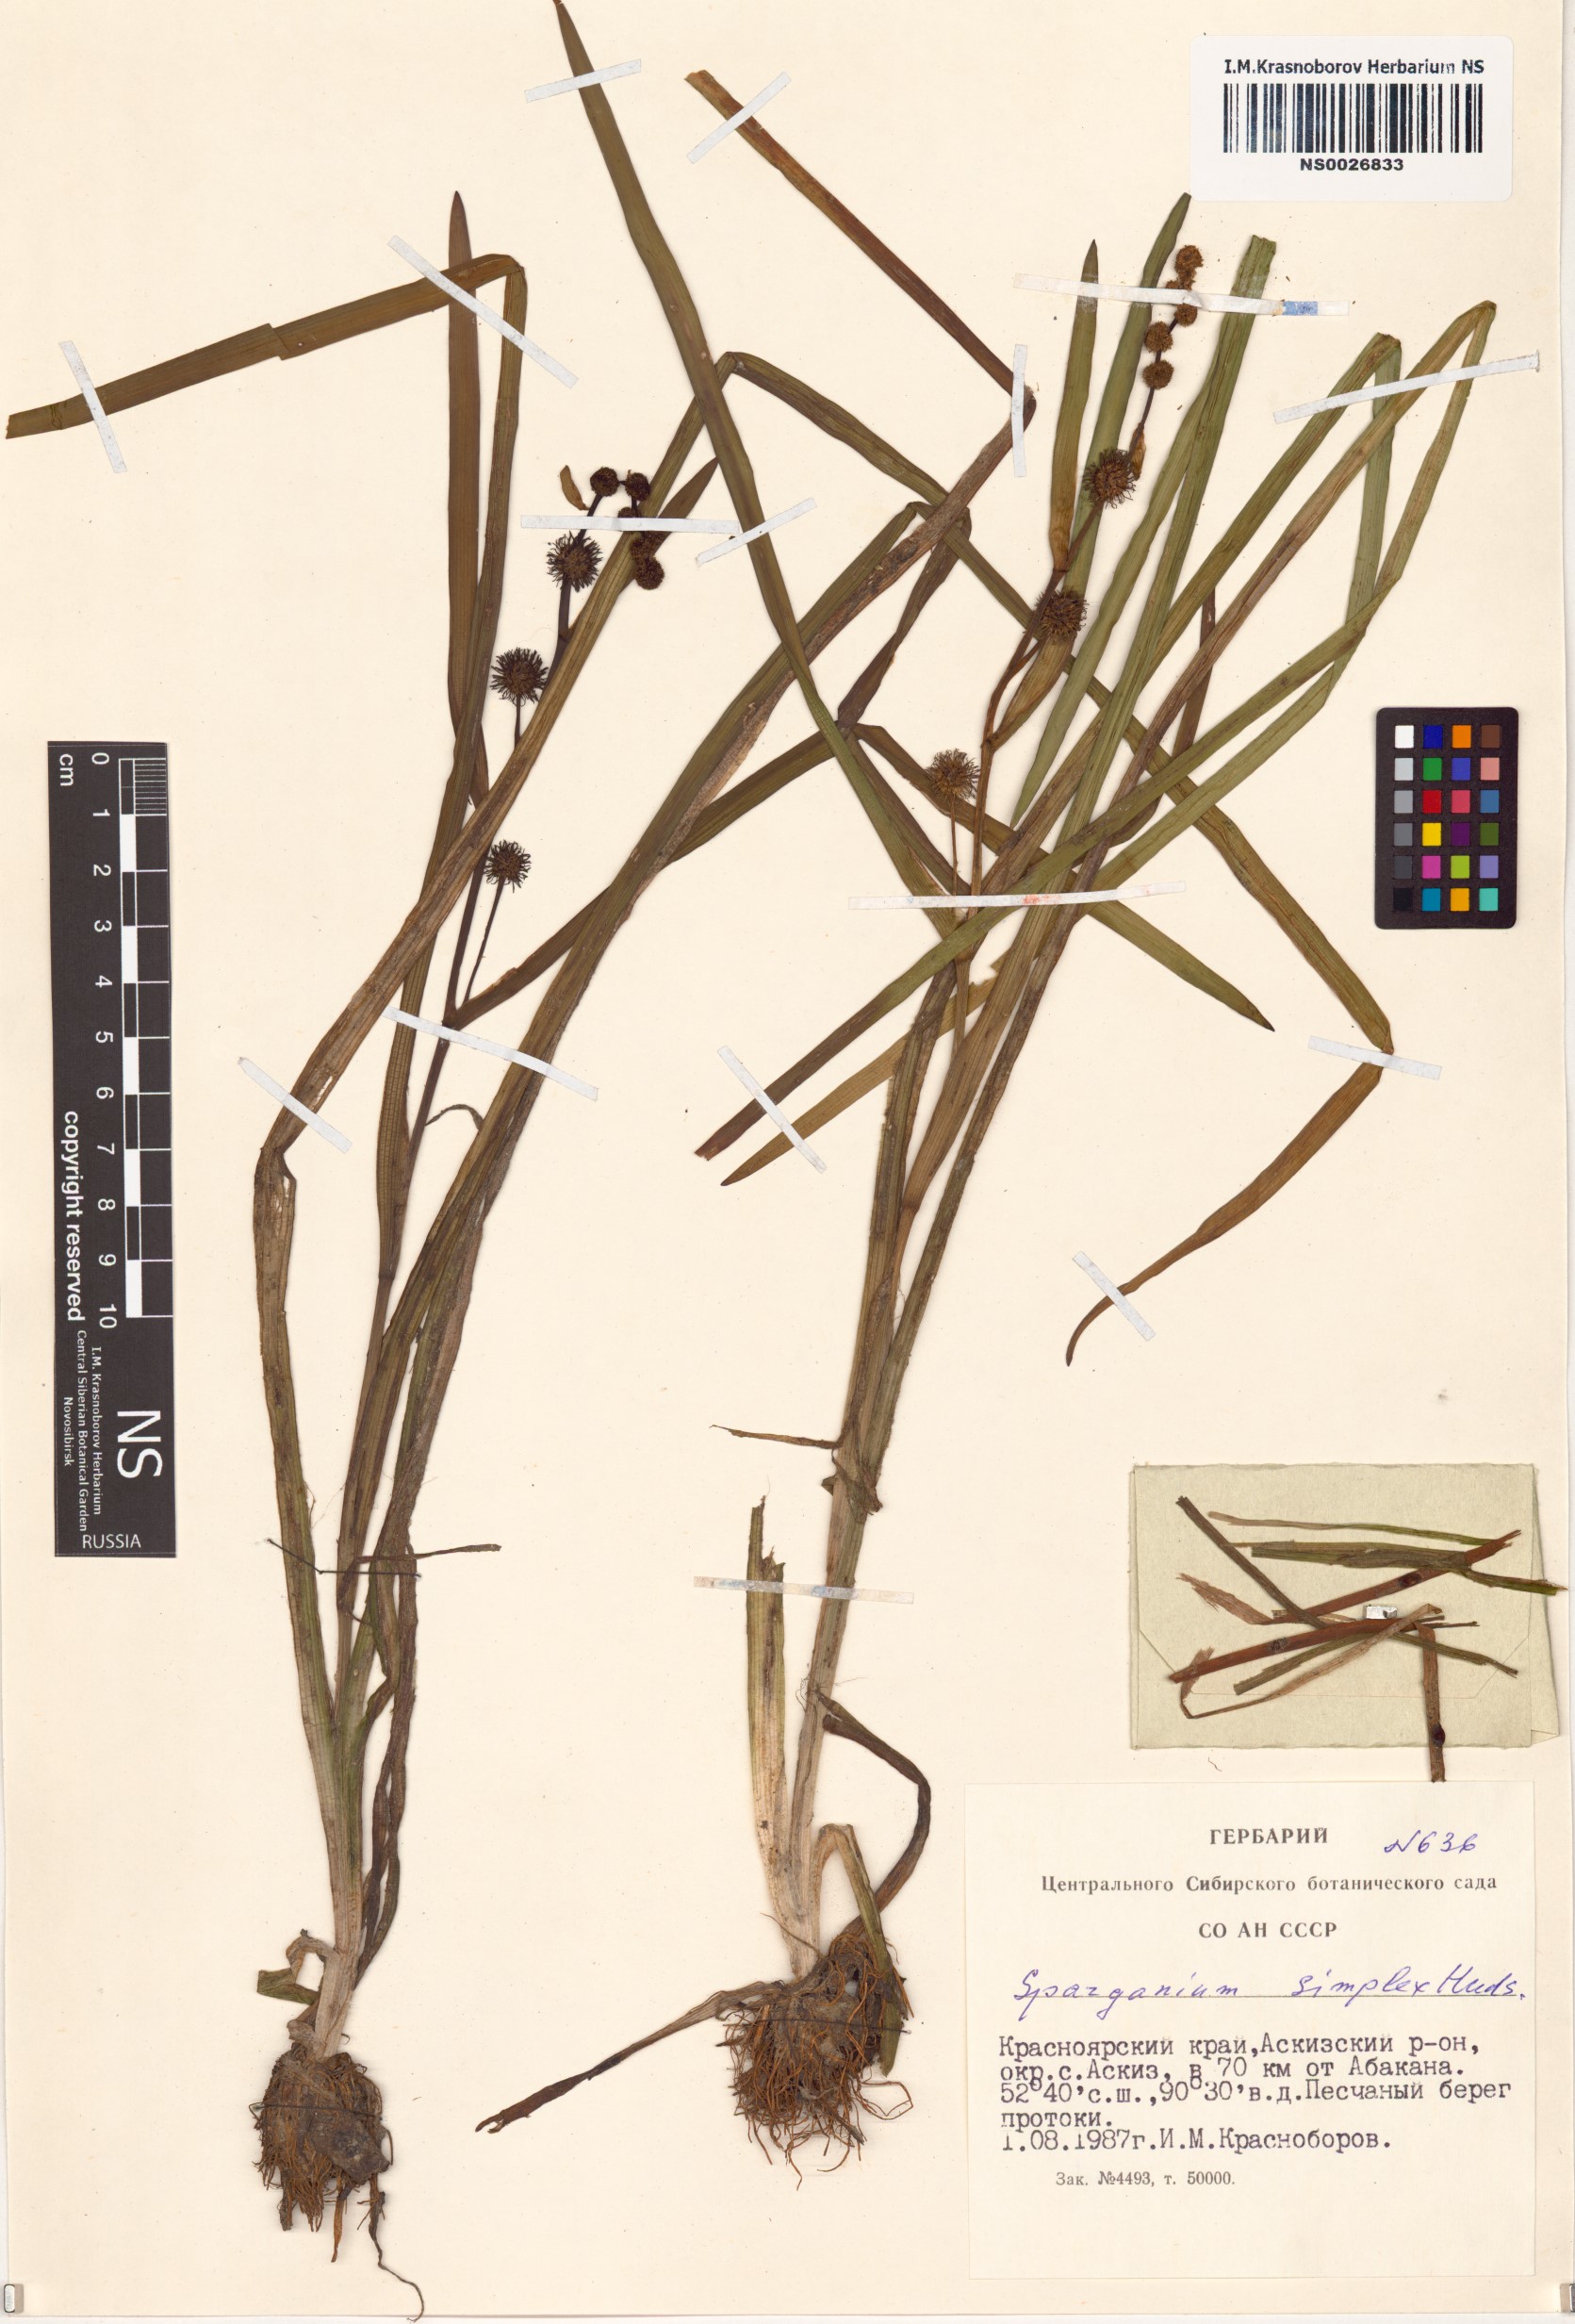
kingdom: Plantae
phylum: Tracheophyta
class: Liliopsida
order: Poales
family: Typhaceae
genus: Sparganium
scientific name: Sparganium emersum
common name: Unbranched bur-reed
